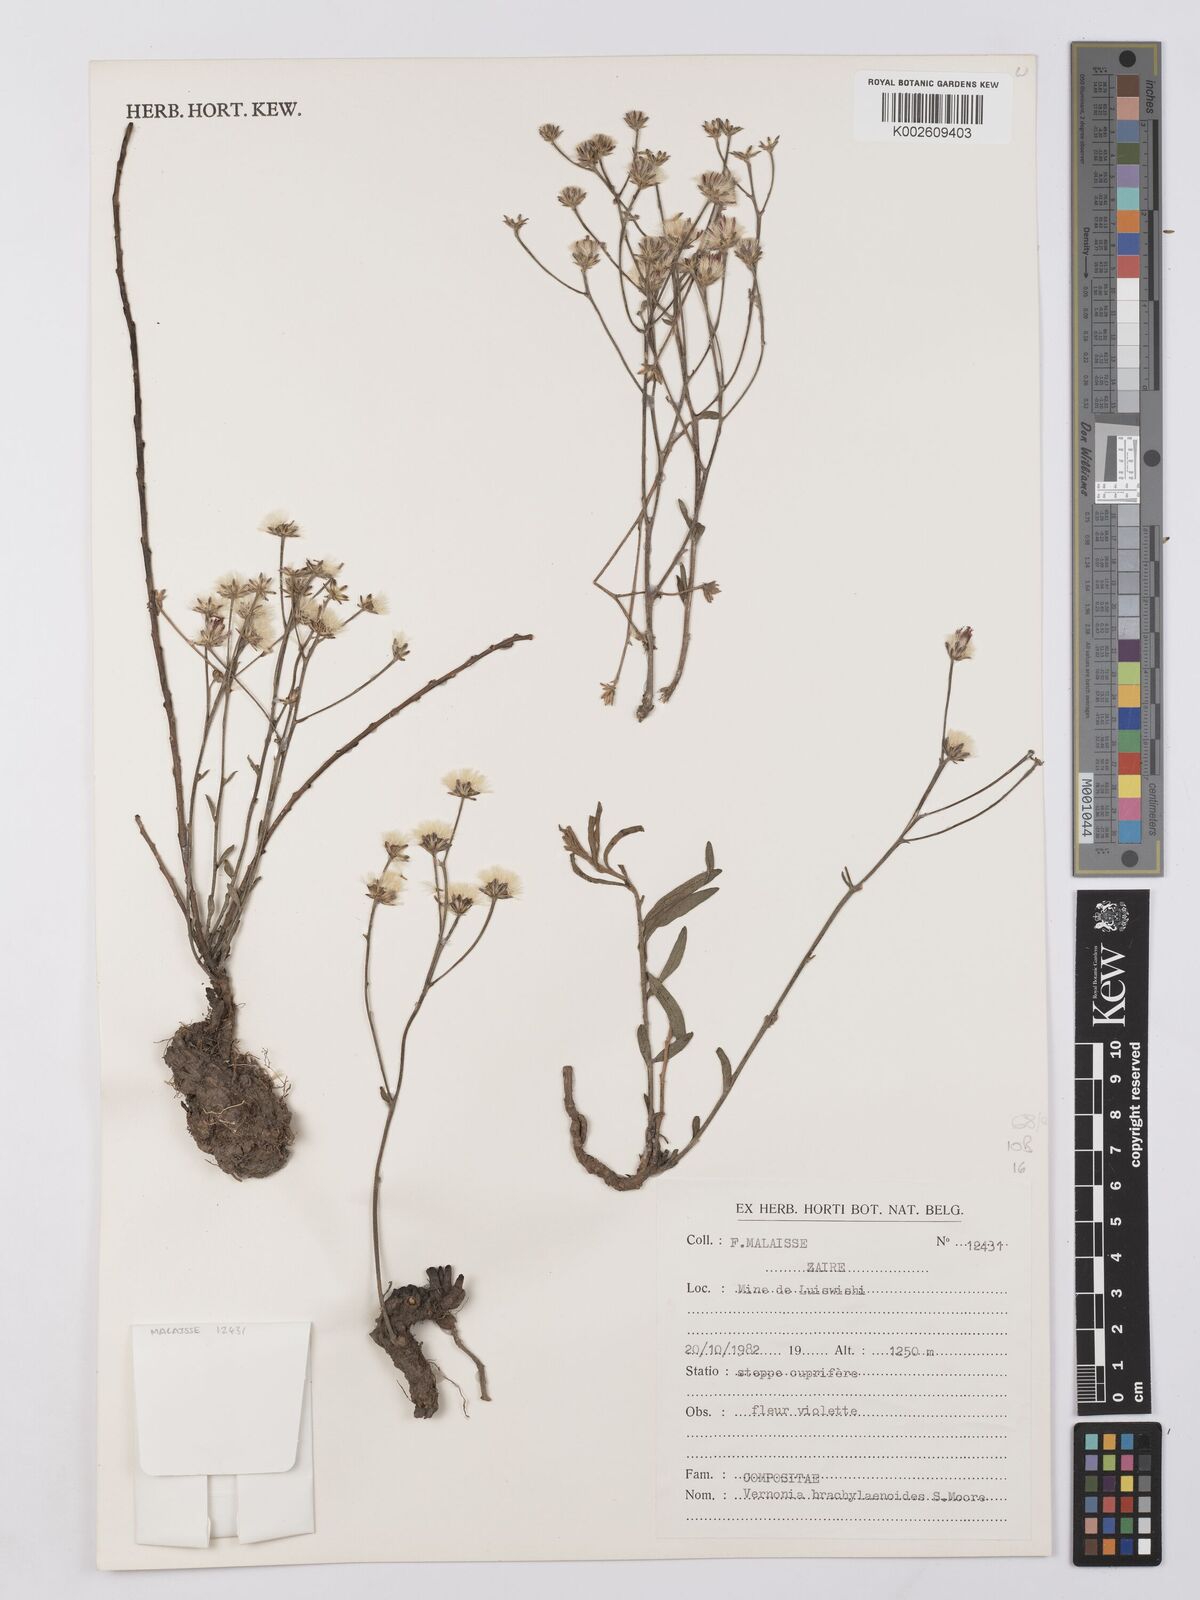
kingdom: Plantae
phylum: Tracheophyta
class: Magnoliopsida
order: Asterales
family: Asteraceae
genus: Gymnanthemum
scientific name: Gymnanthemum glaberrimum
